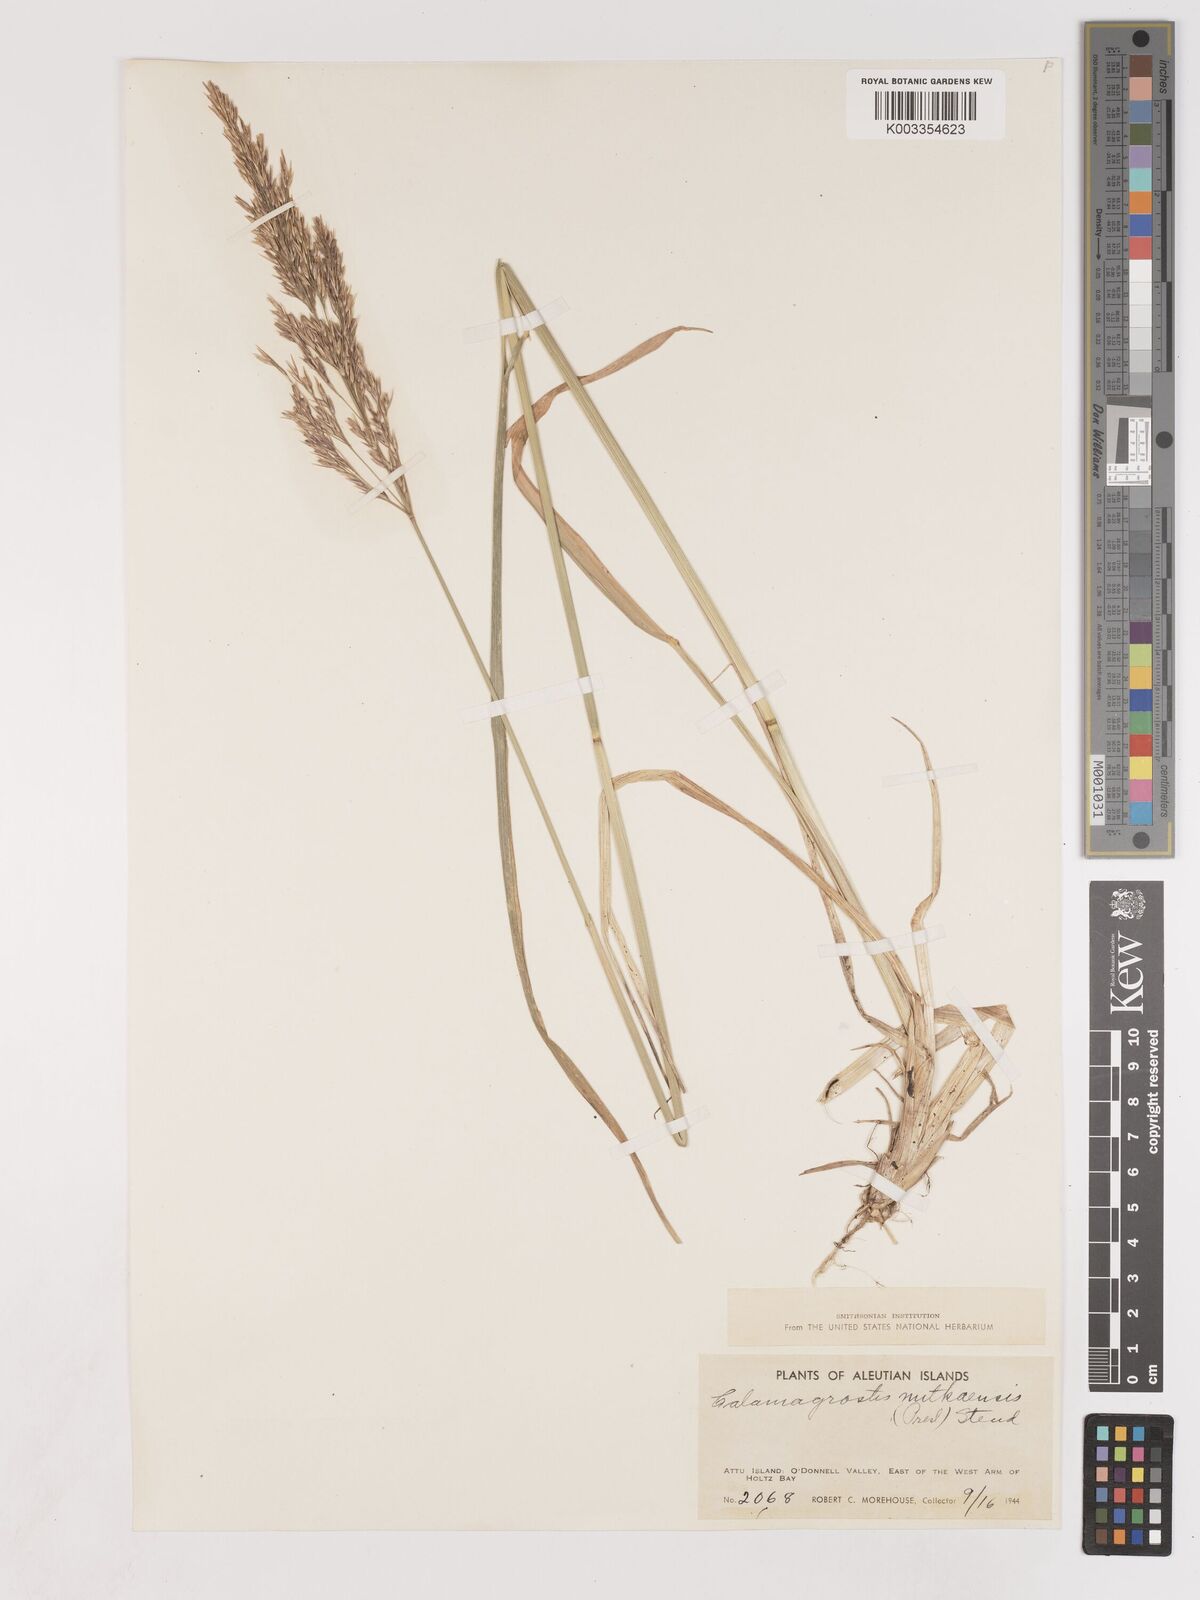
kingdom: Plantae
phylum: Tracheophyta
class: Liliopsida
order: Poales
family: Poaceae
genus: Calamagrostis
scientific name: Calamagrostis nutkaensis
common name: Pacific reed grass
